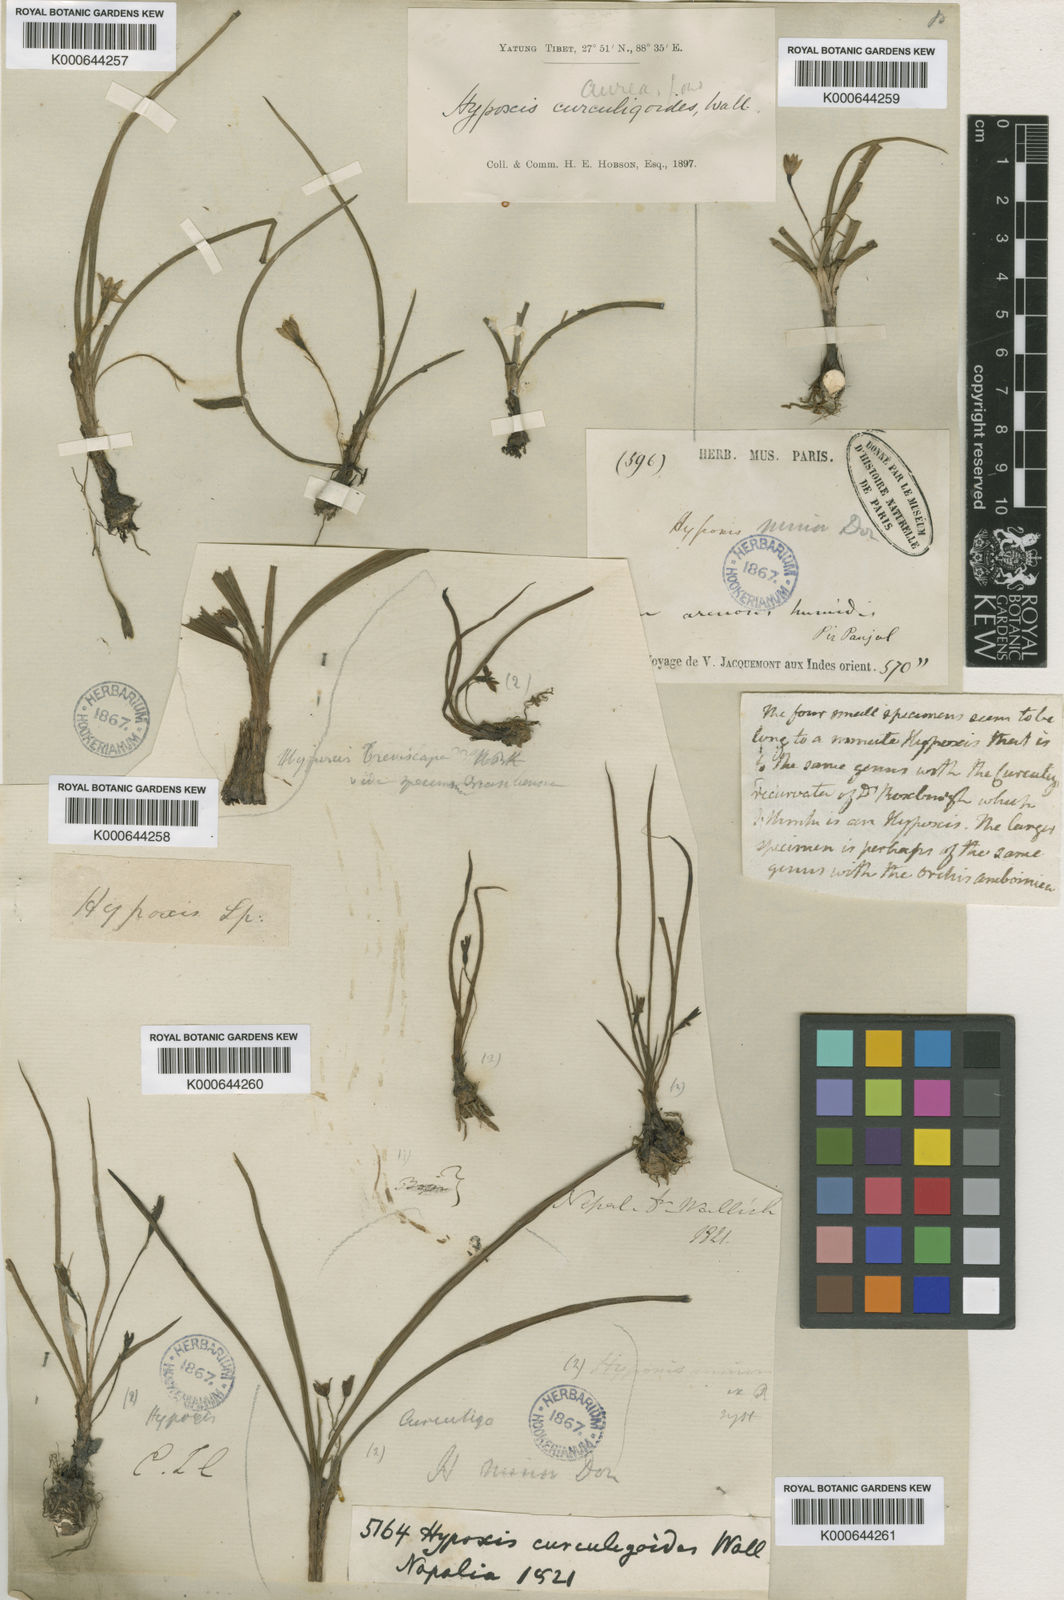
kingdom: Plantae
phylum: Tracheophyta
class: Liliopsida
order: Asparagales
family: Hypoxidaceae
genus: Hypoxis
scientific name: Hypoxis aurea
